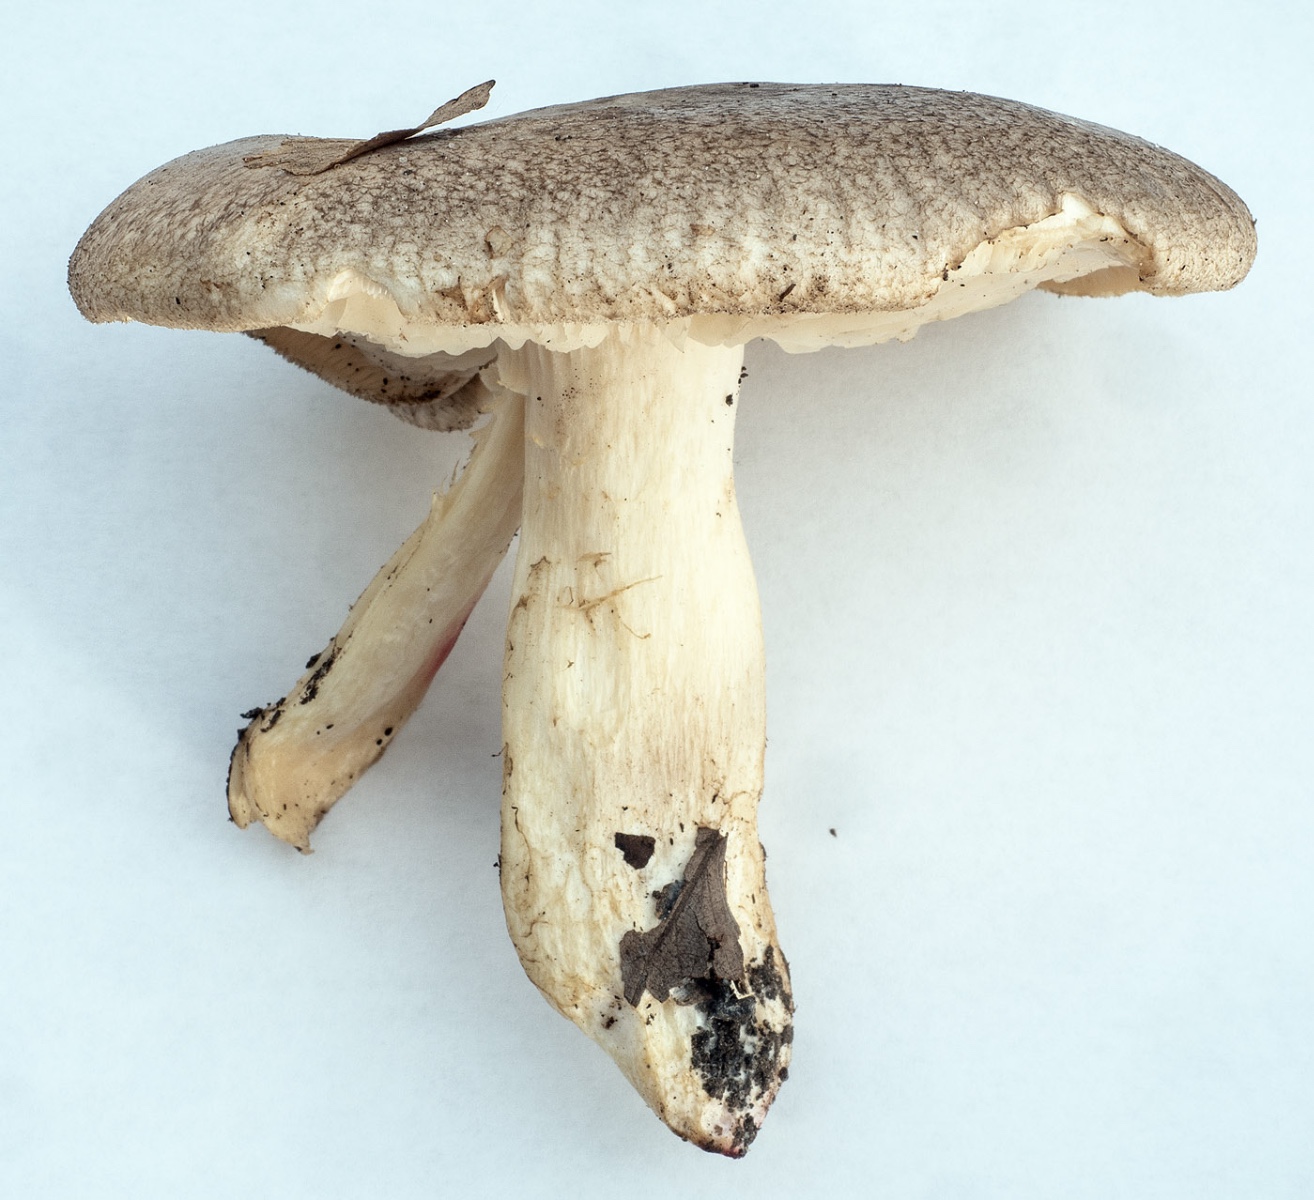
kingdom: Fungi
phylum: Basidiomycota
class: Agaricomycetes
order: Agaricales
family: Pseudoclitocybaceae
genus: Pogonoloma
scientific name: Pogonoloma spinulosum
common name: duftende alfehat
